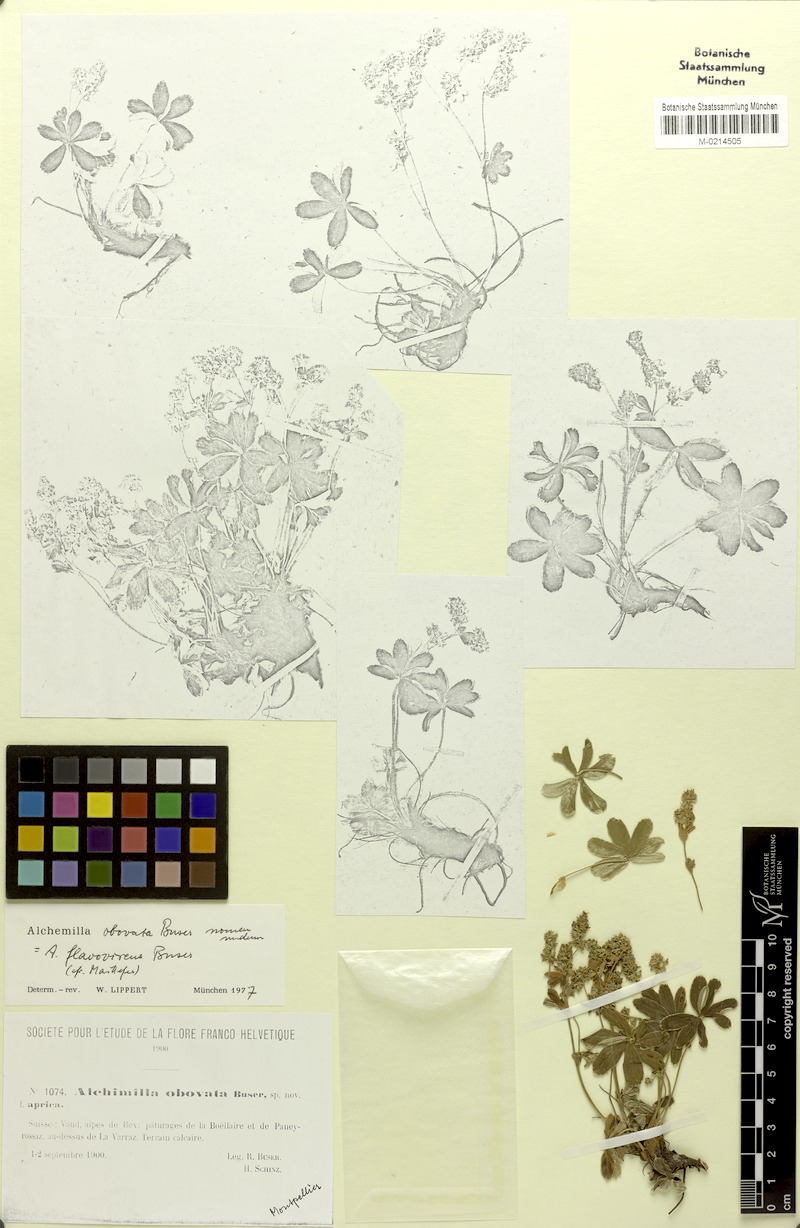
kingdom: Plantae
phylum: Tracheophyta
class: Magnoliopsida
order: Rosales
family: Rosaceae
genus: Alchemilla
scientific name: Alchemilla flavovirens
